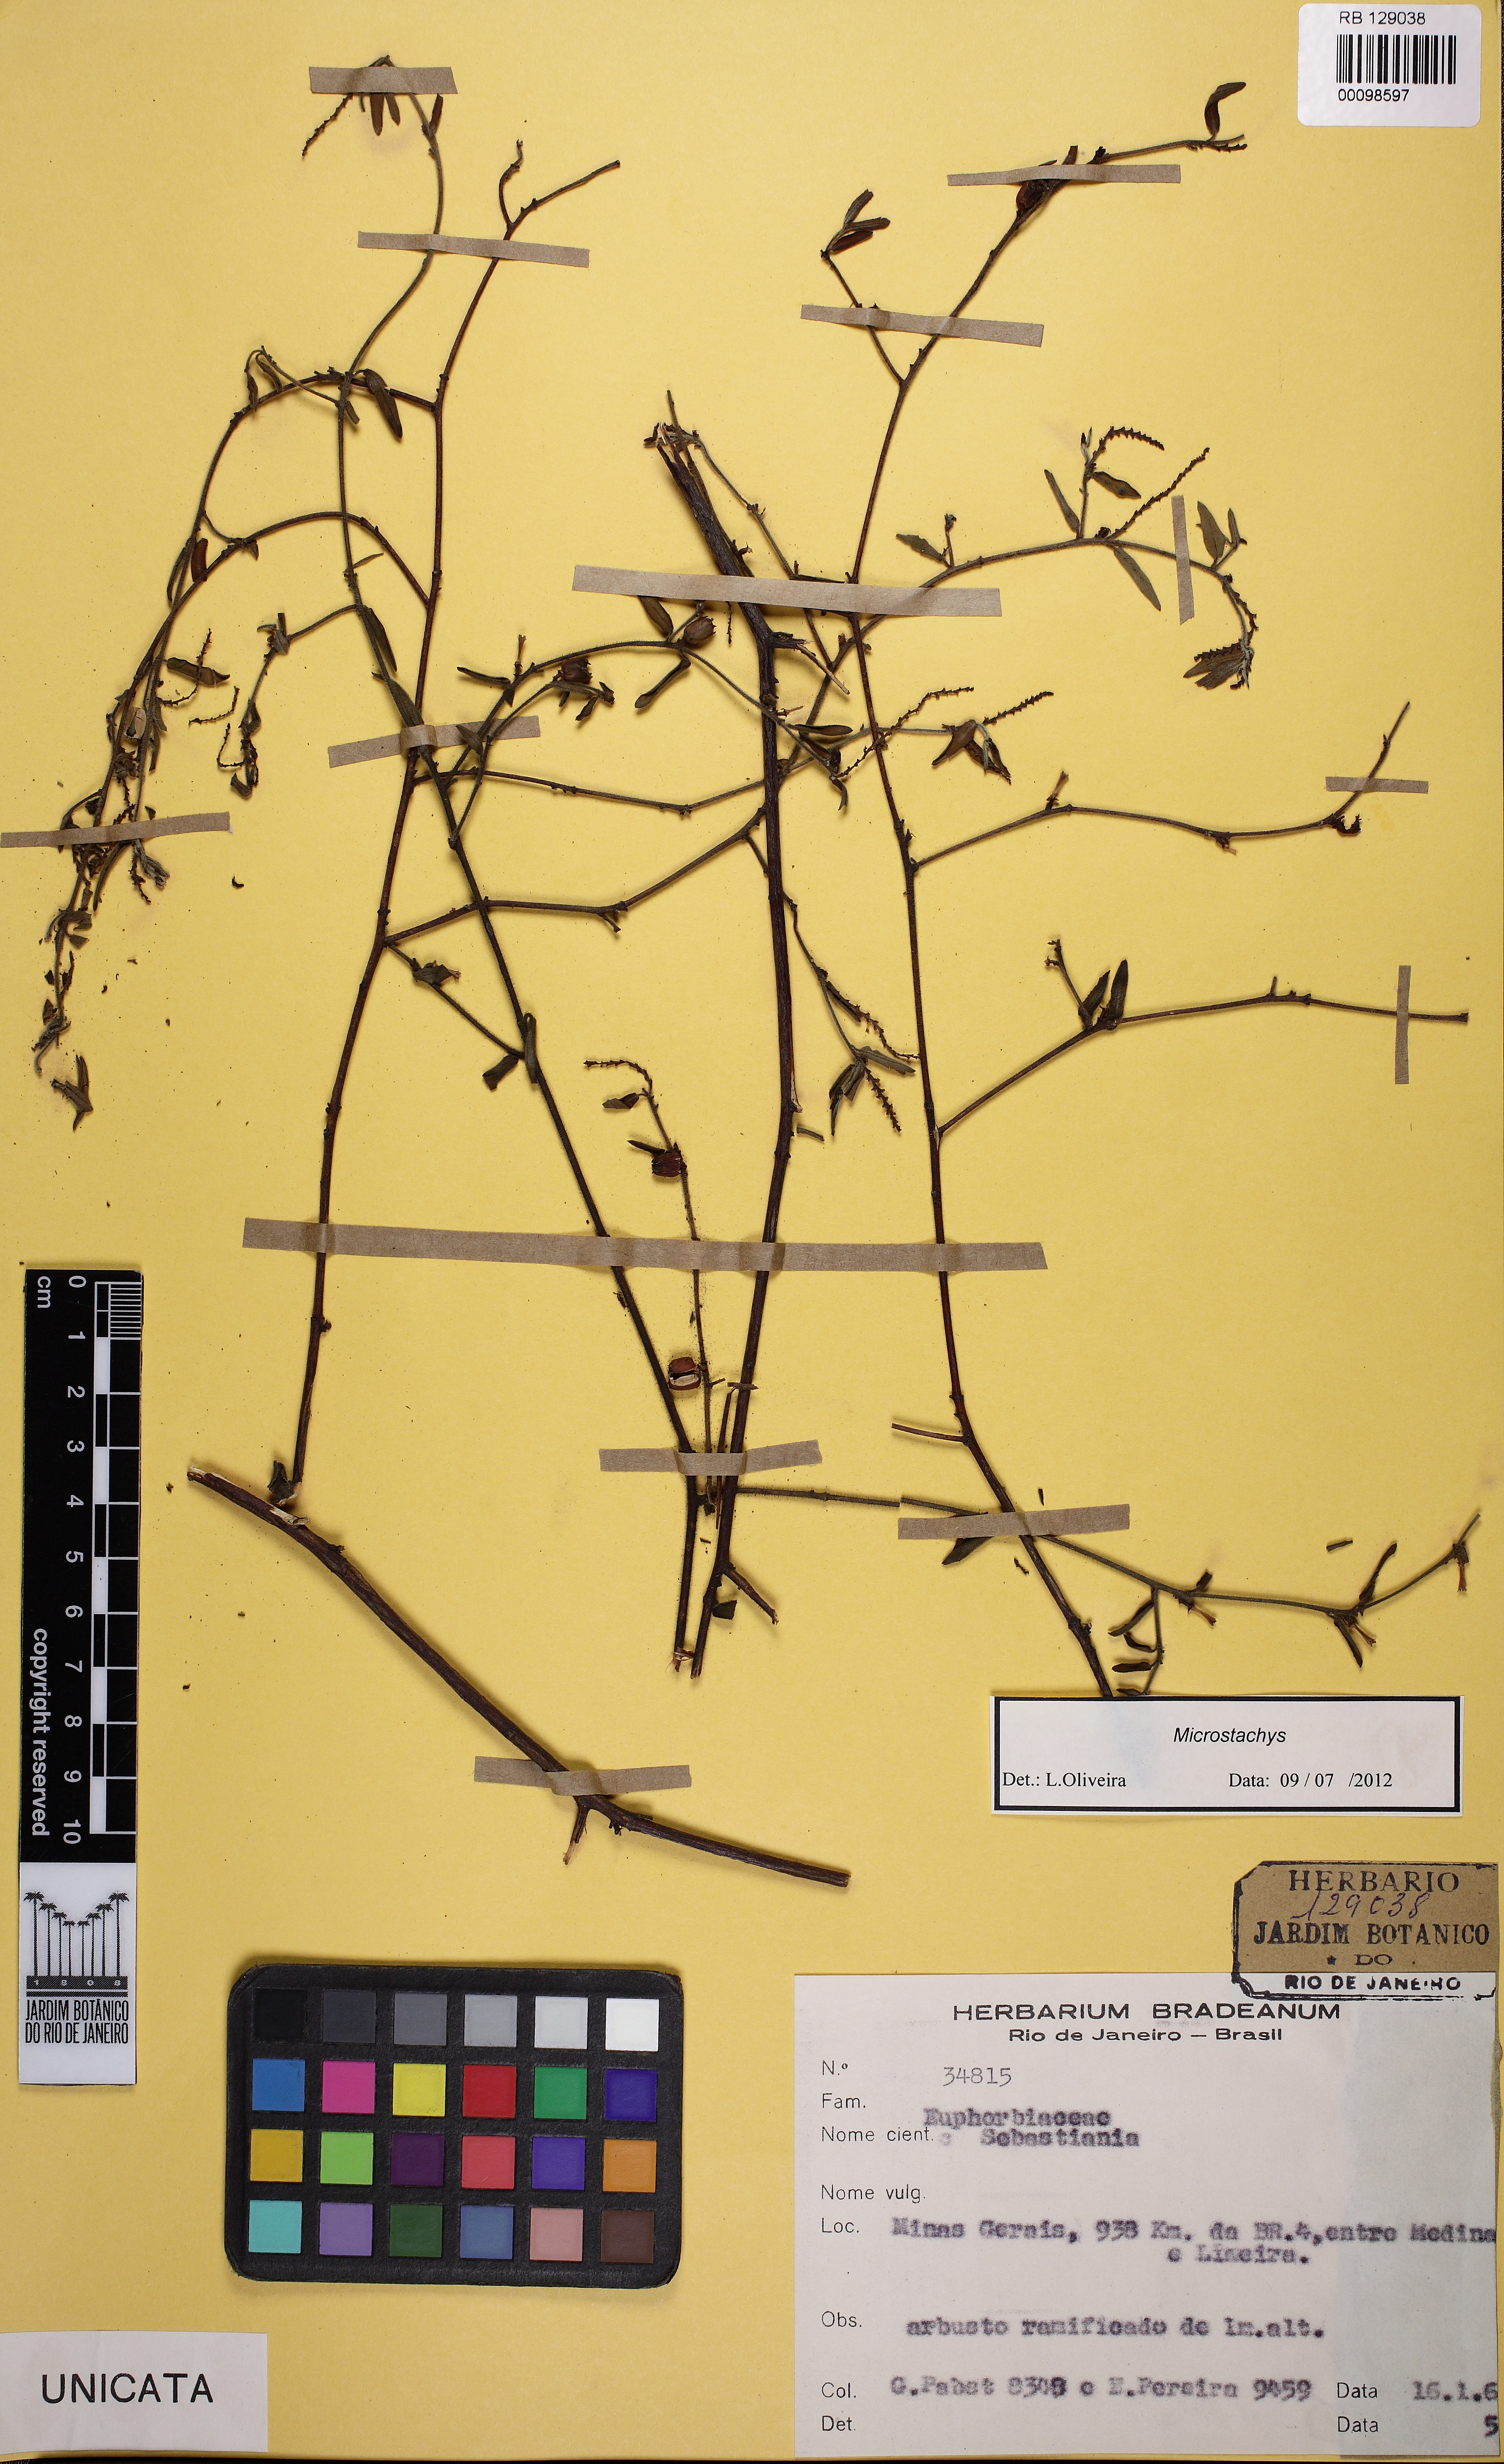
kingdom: Plantae
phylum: Tracheophyta
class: Magnoliopsida
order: Malpighiales
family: Euphorbiaceae
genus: Microstachys
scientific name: Microstachys
